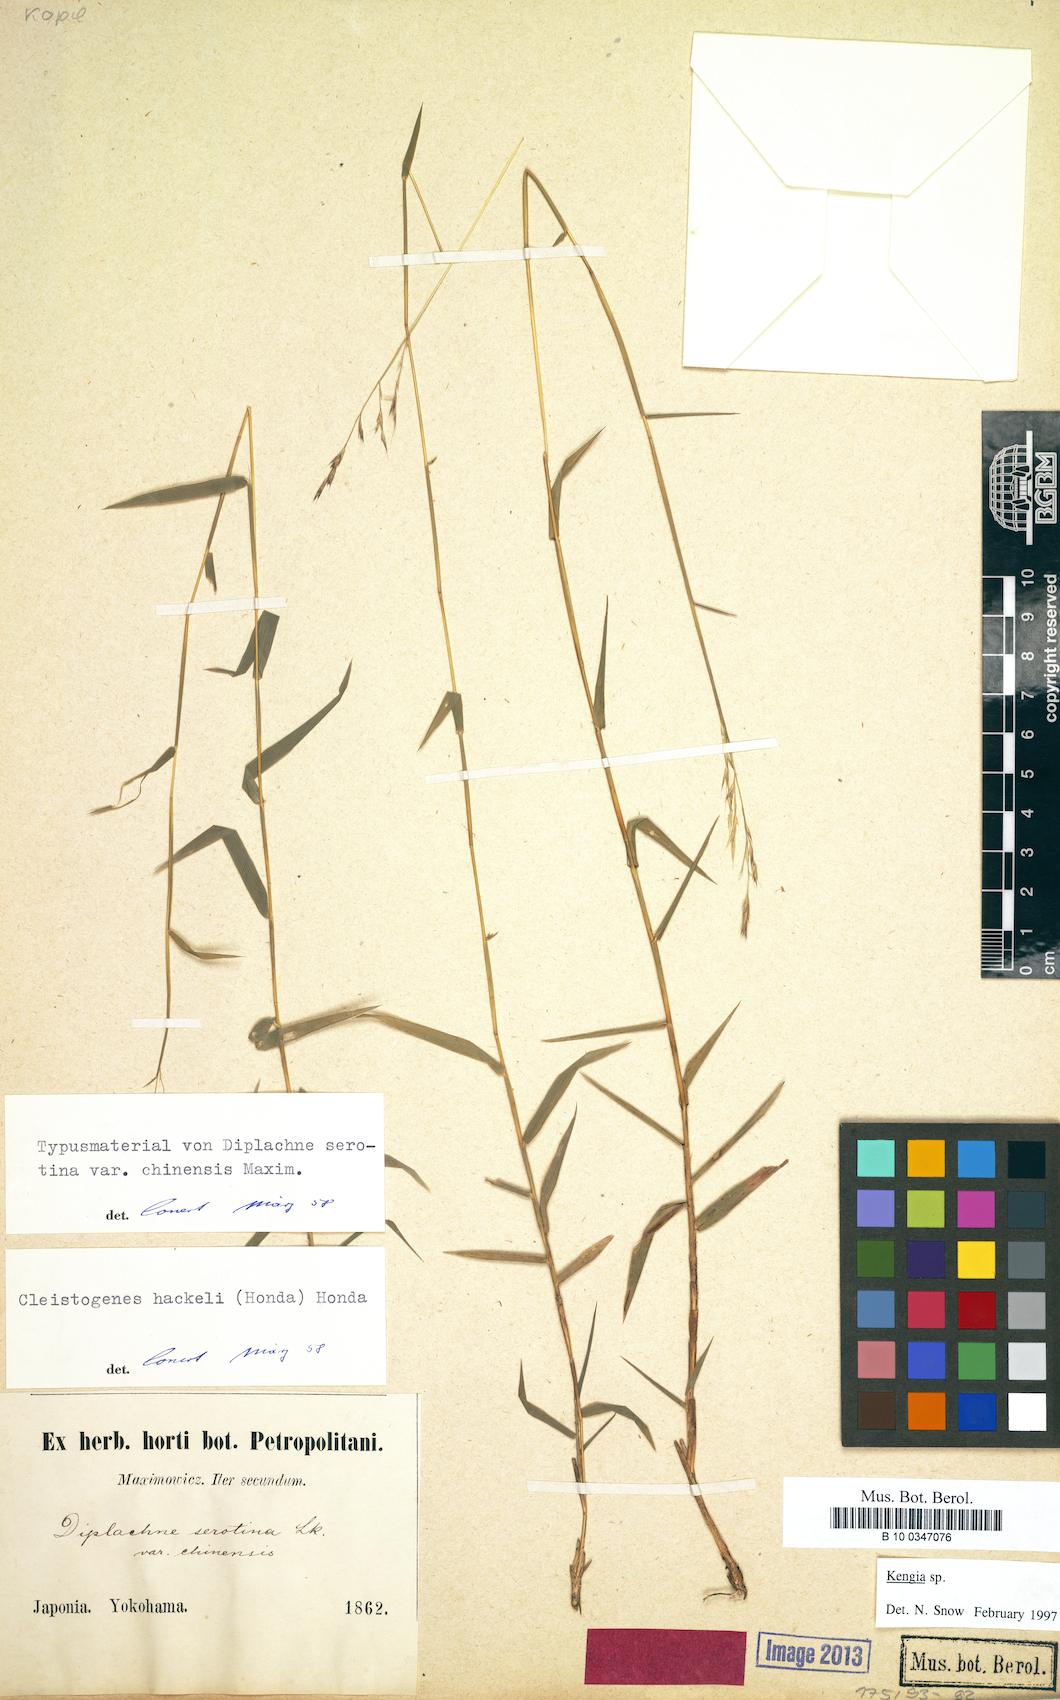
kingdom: Plantae
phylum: Tracheophyta
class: Liliopsida
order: Poales
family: Poaceae
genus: Cleistogenes
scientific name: Cleistogenes serotina
